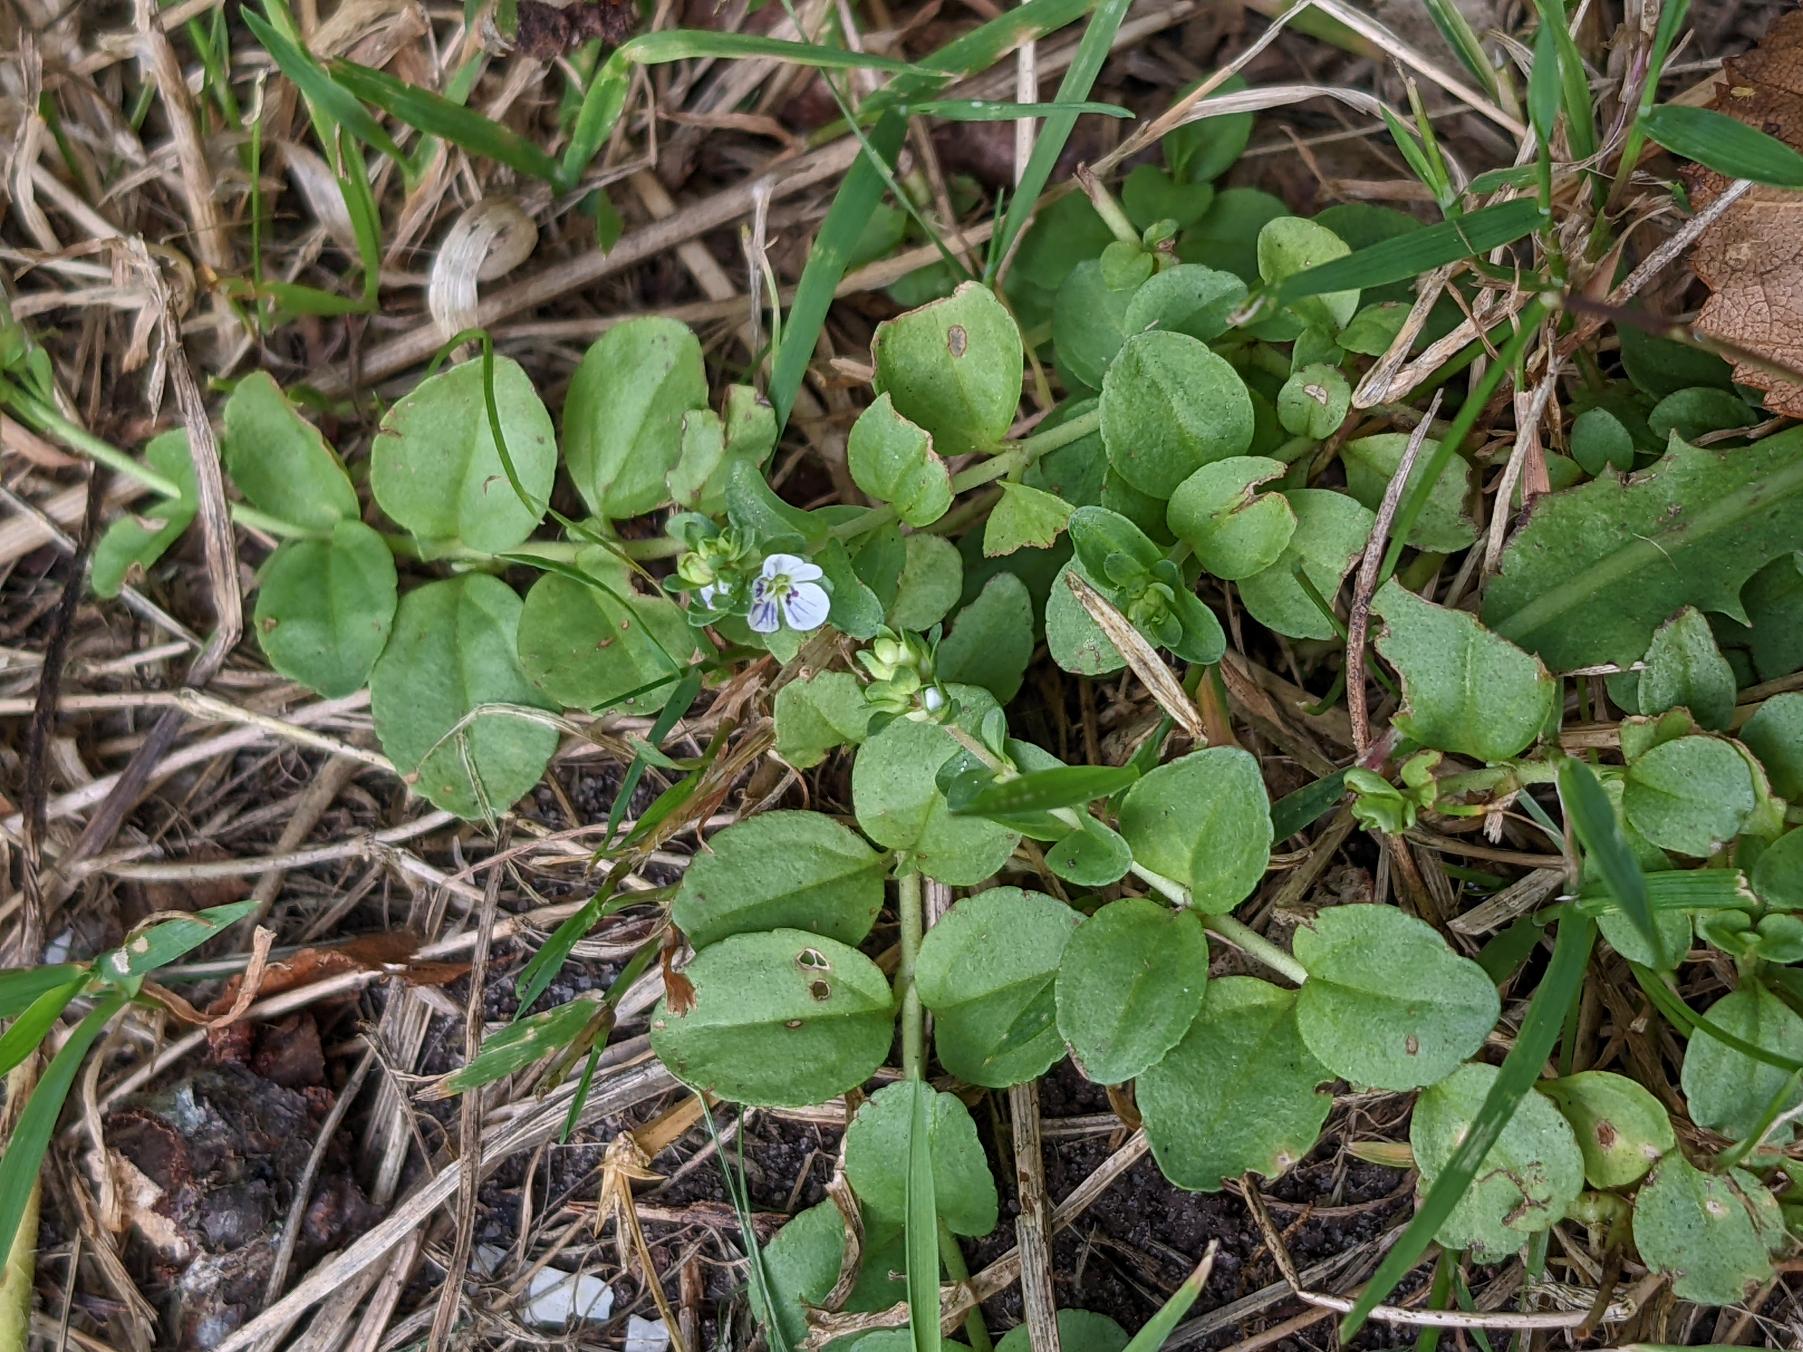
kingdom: Plantae
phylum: Tracheophyta
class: Magnoliopsida
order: Lamiales
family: Plantaginaceae
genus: Veronica
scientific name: Veronica serpyllifolia
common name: Glat ærenpris
